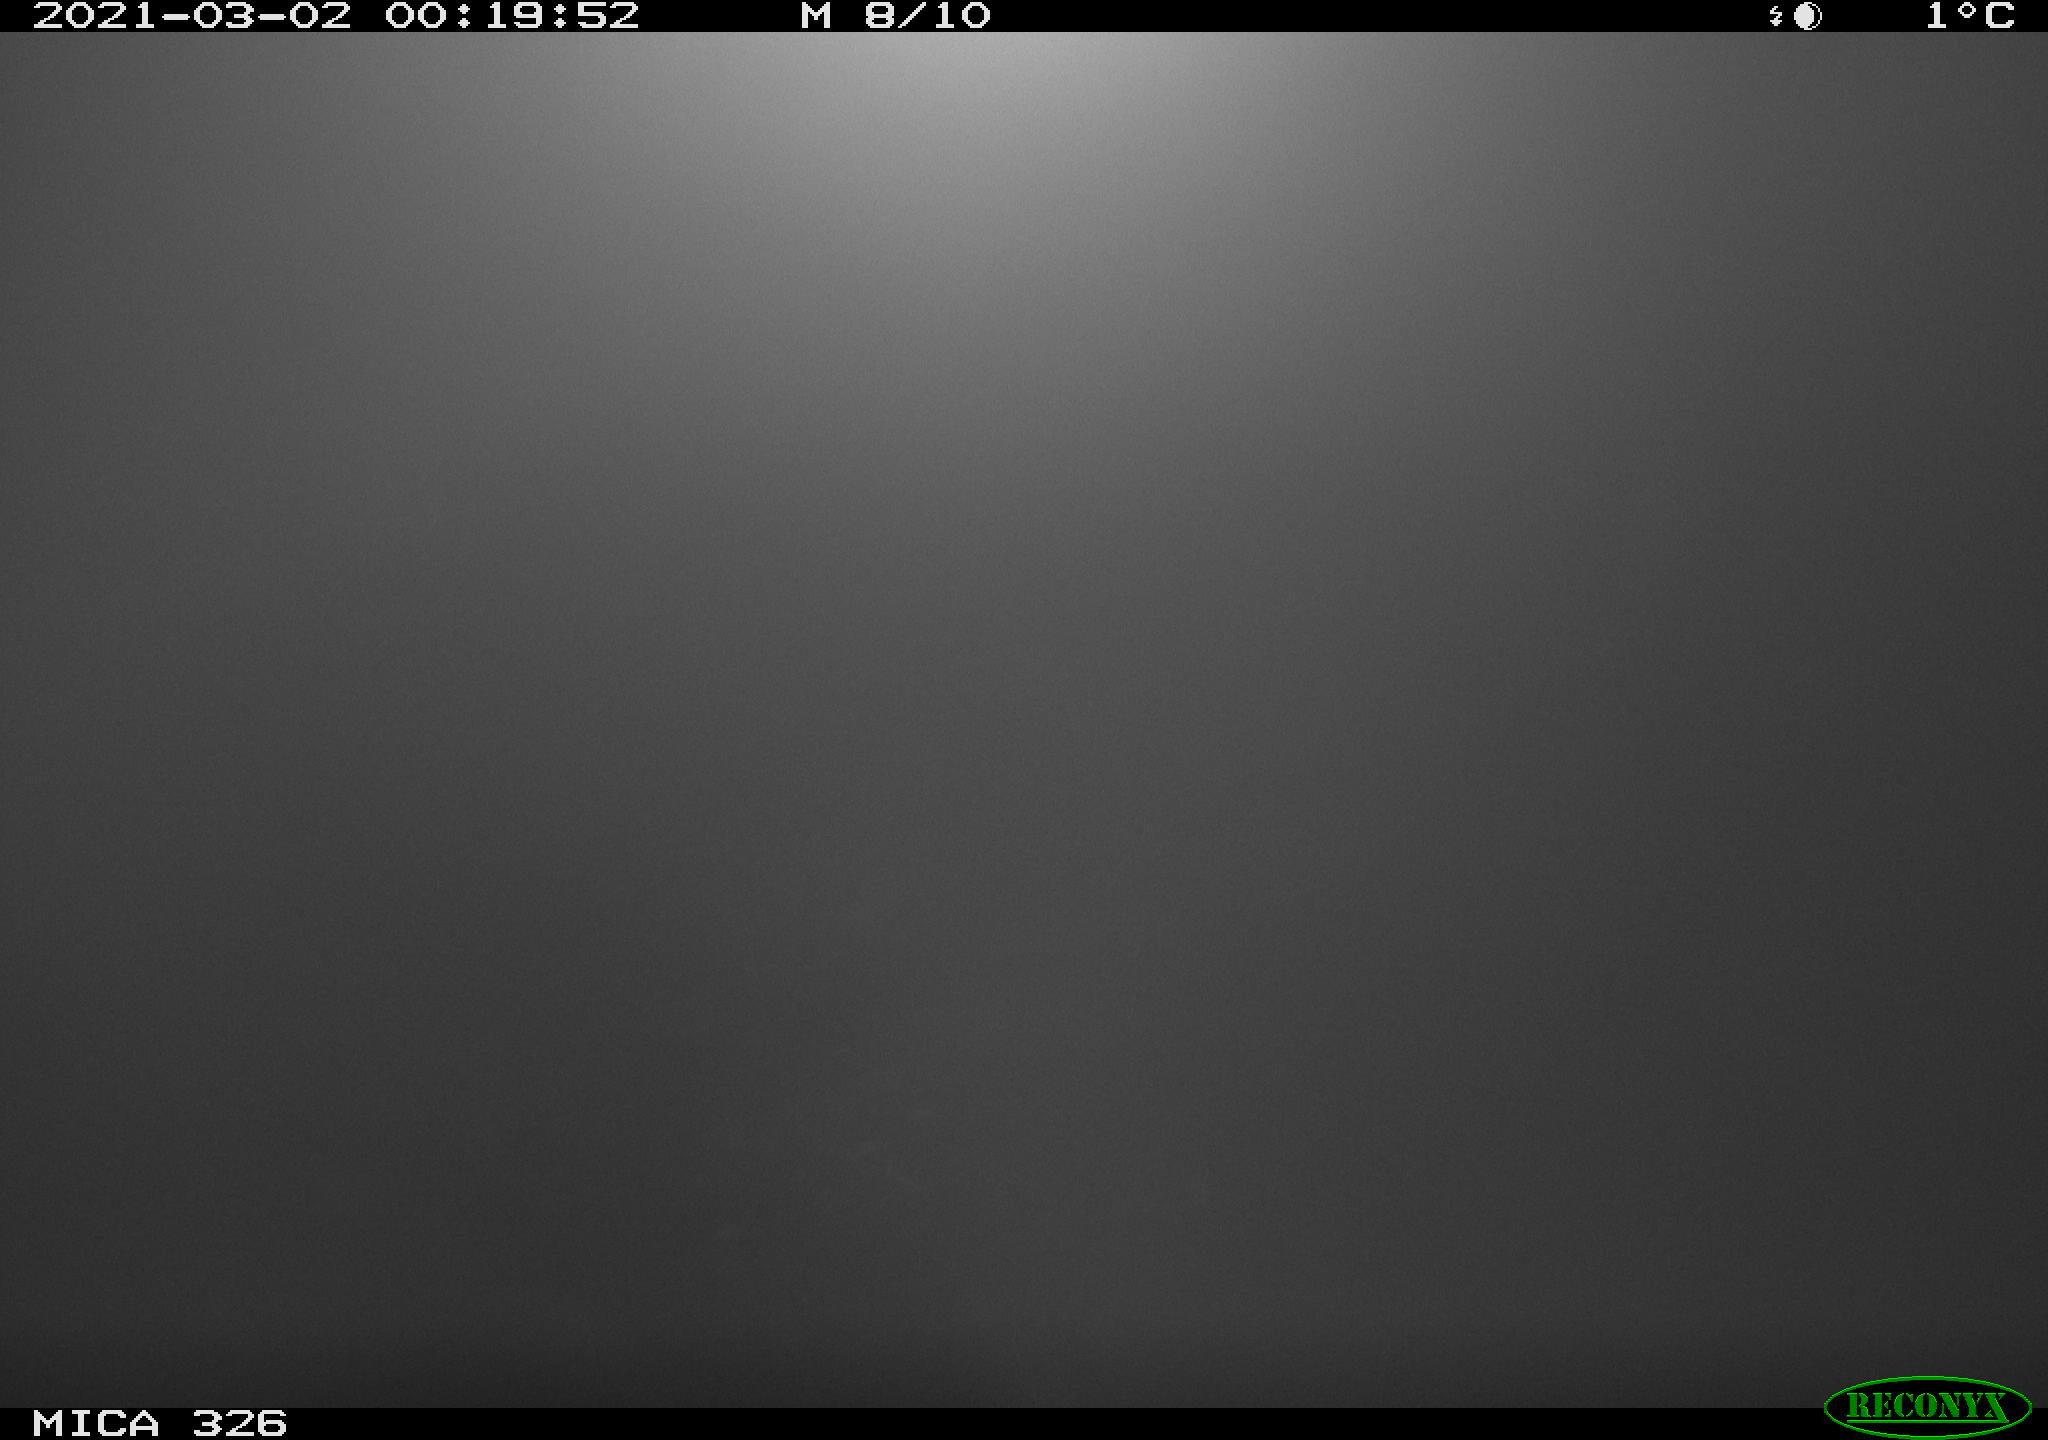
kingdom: Animalia
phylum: Chordata
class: Mammalia
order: Carnivora
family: Mustelidae
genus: Lutra
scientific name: Lutra lutra
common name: European otter
